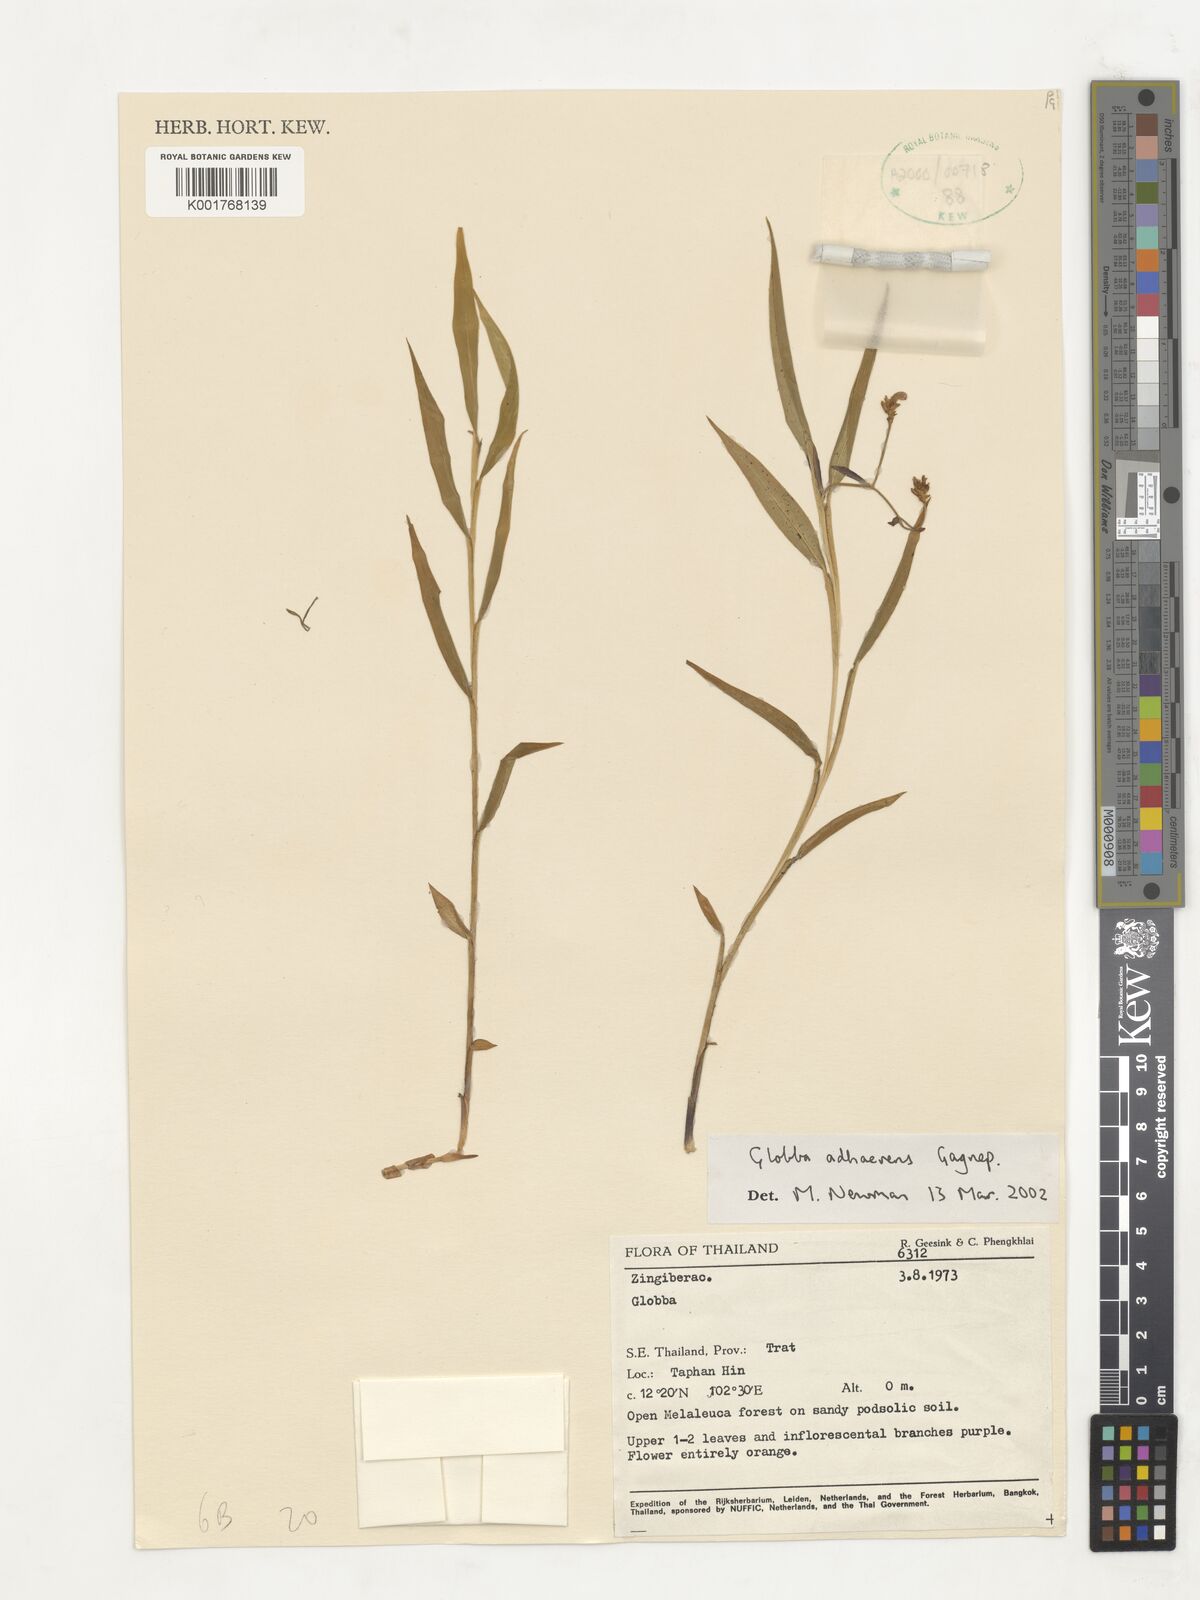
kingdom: Plantae
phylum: Tracheophyta
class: Liliopsida
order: Zingiberales
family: Zingiberaceae
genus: Globba
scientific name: Globba adhaerens
